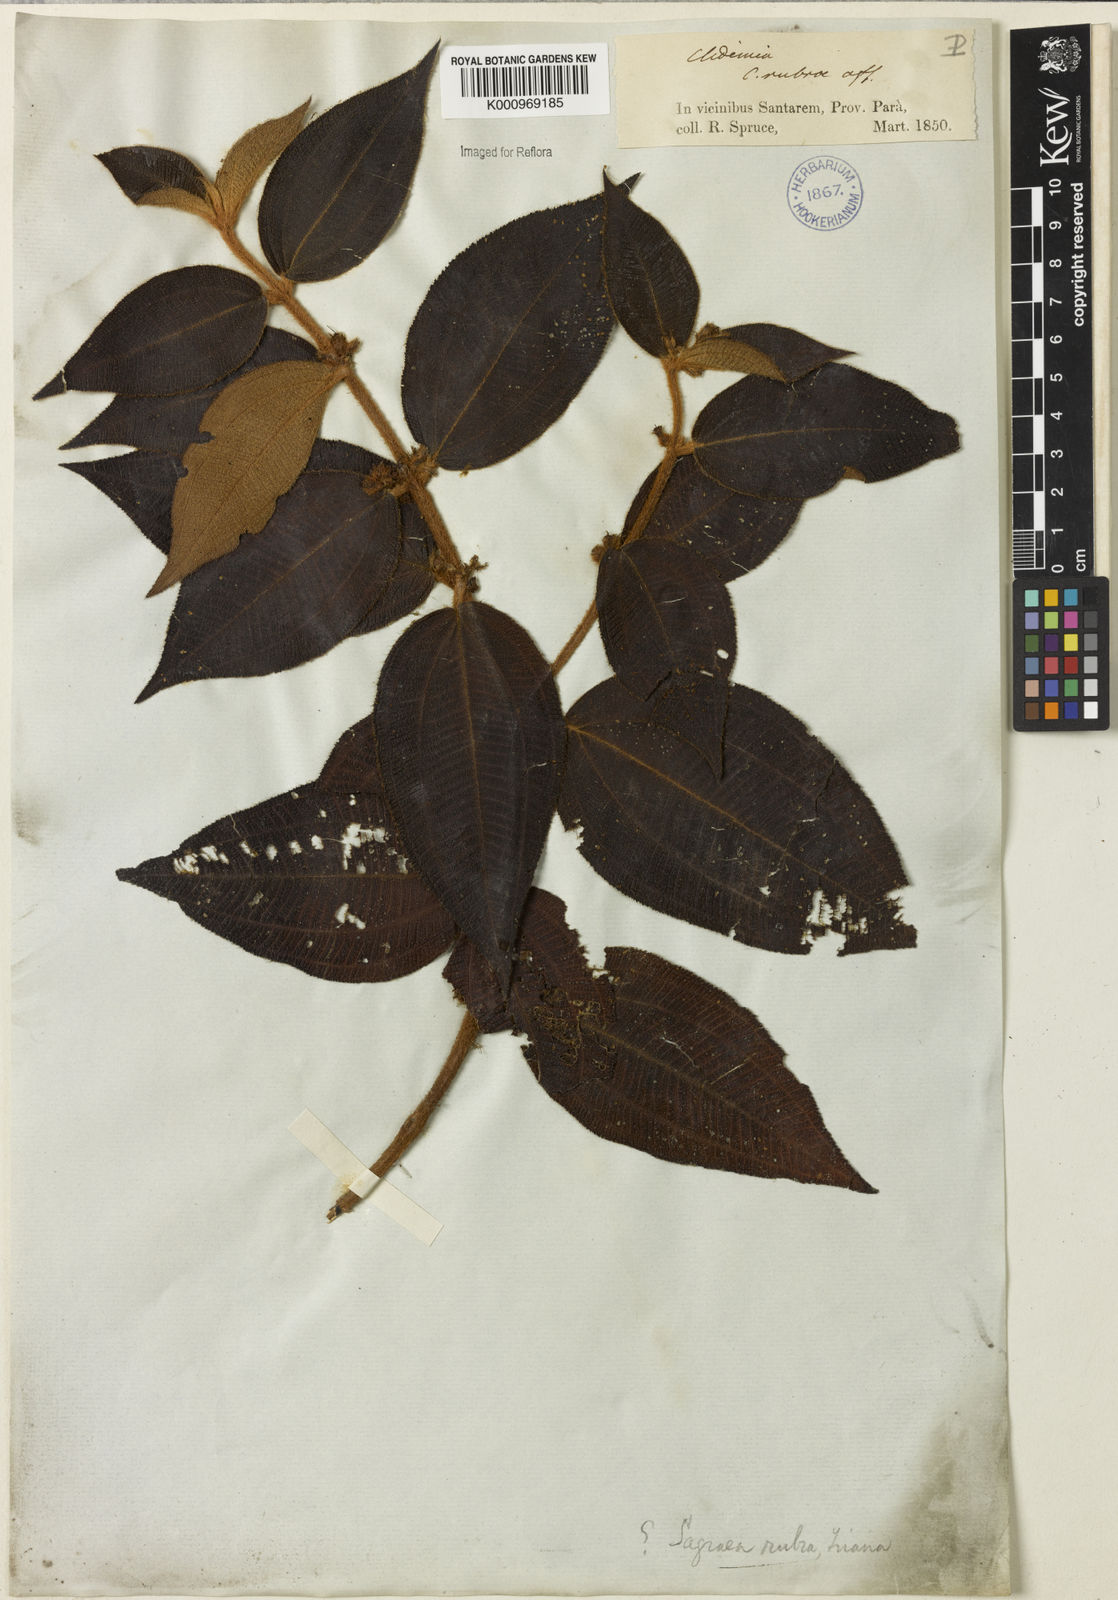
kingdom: Plantae
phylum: Tracheophyta
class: Magnoliopsida
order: Myrtales
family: Melastomataceae
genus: Miconia
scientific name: Miconia rubra
